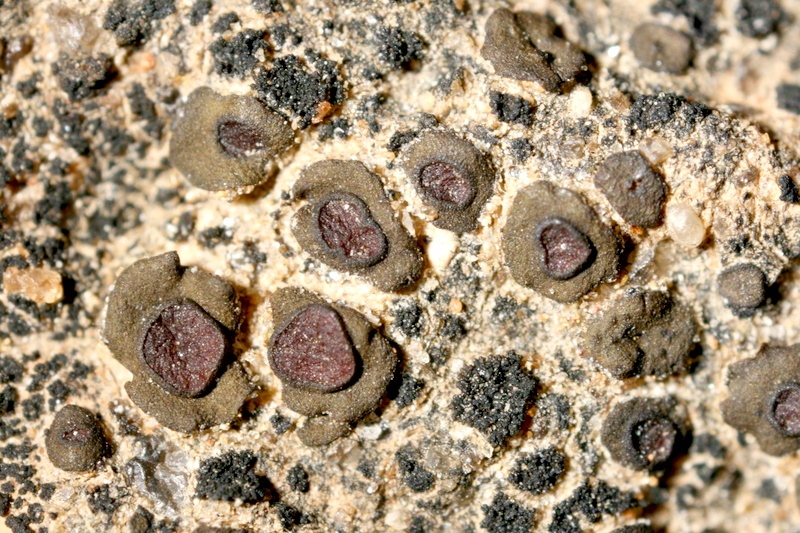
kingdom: Fungi
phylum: Ascomycota
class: Lichinomycetes
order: Lichinales
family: Peltulaceae
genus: Peltula
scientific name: Peltula radicata
